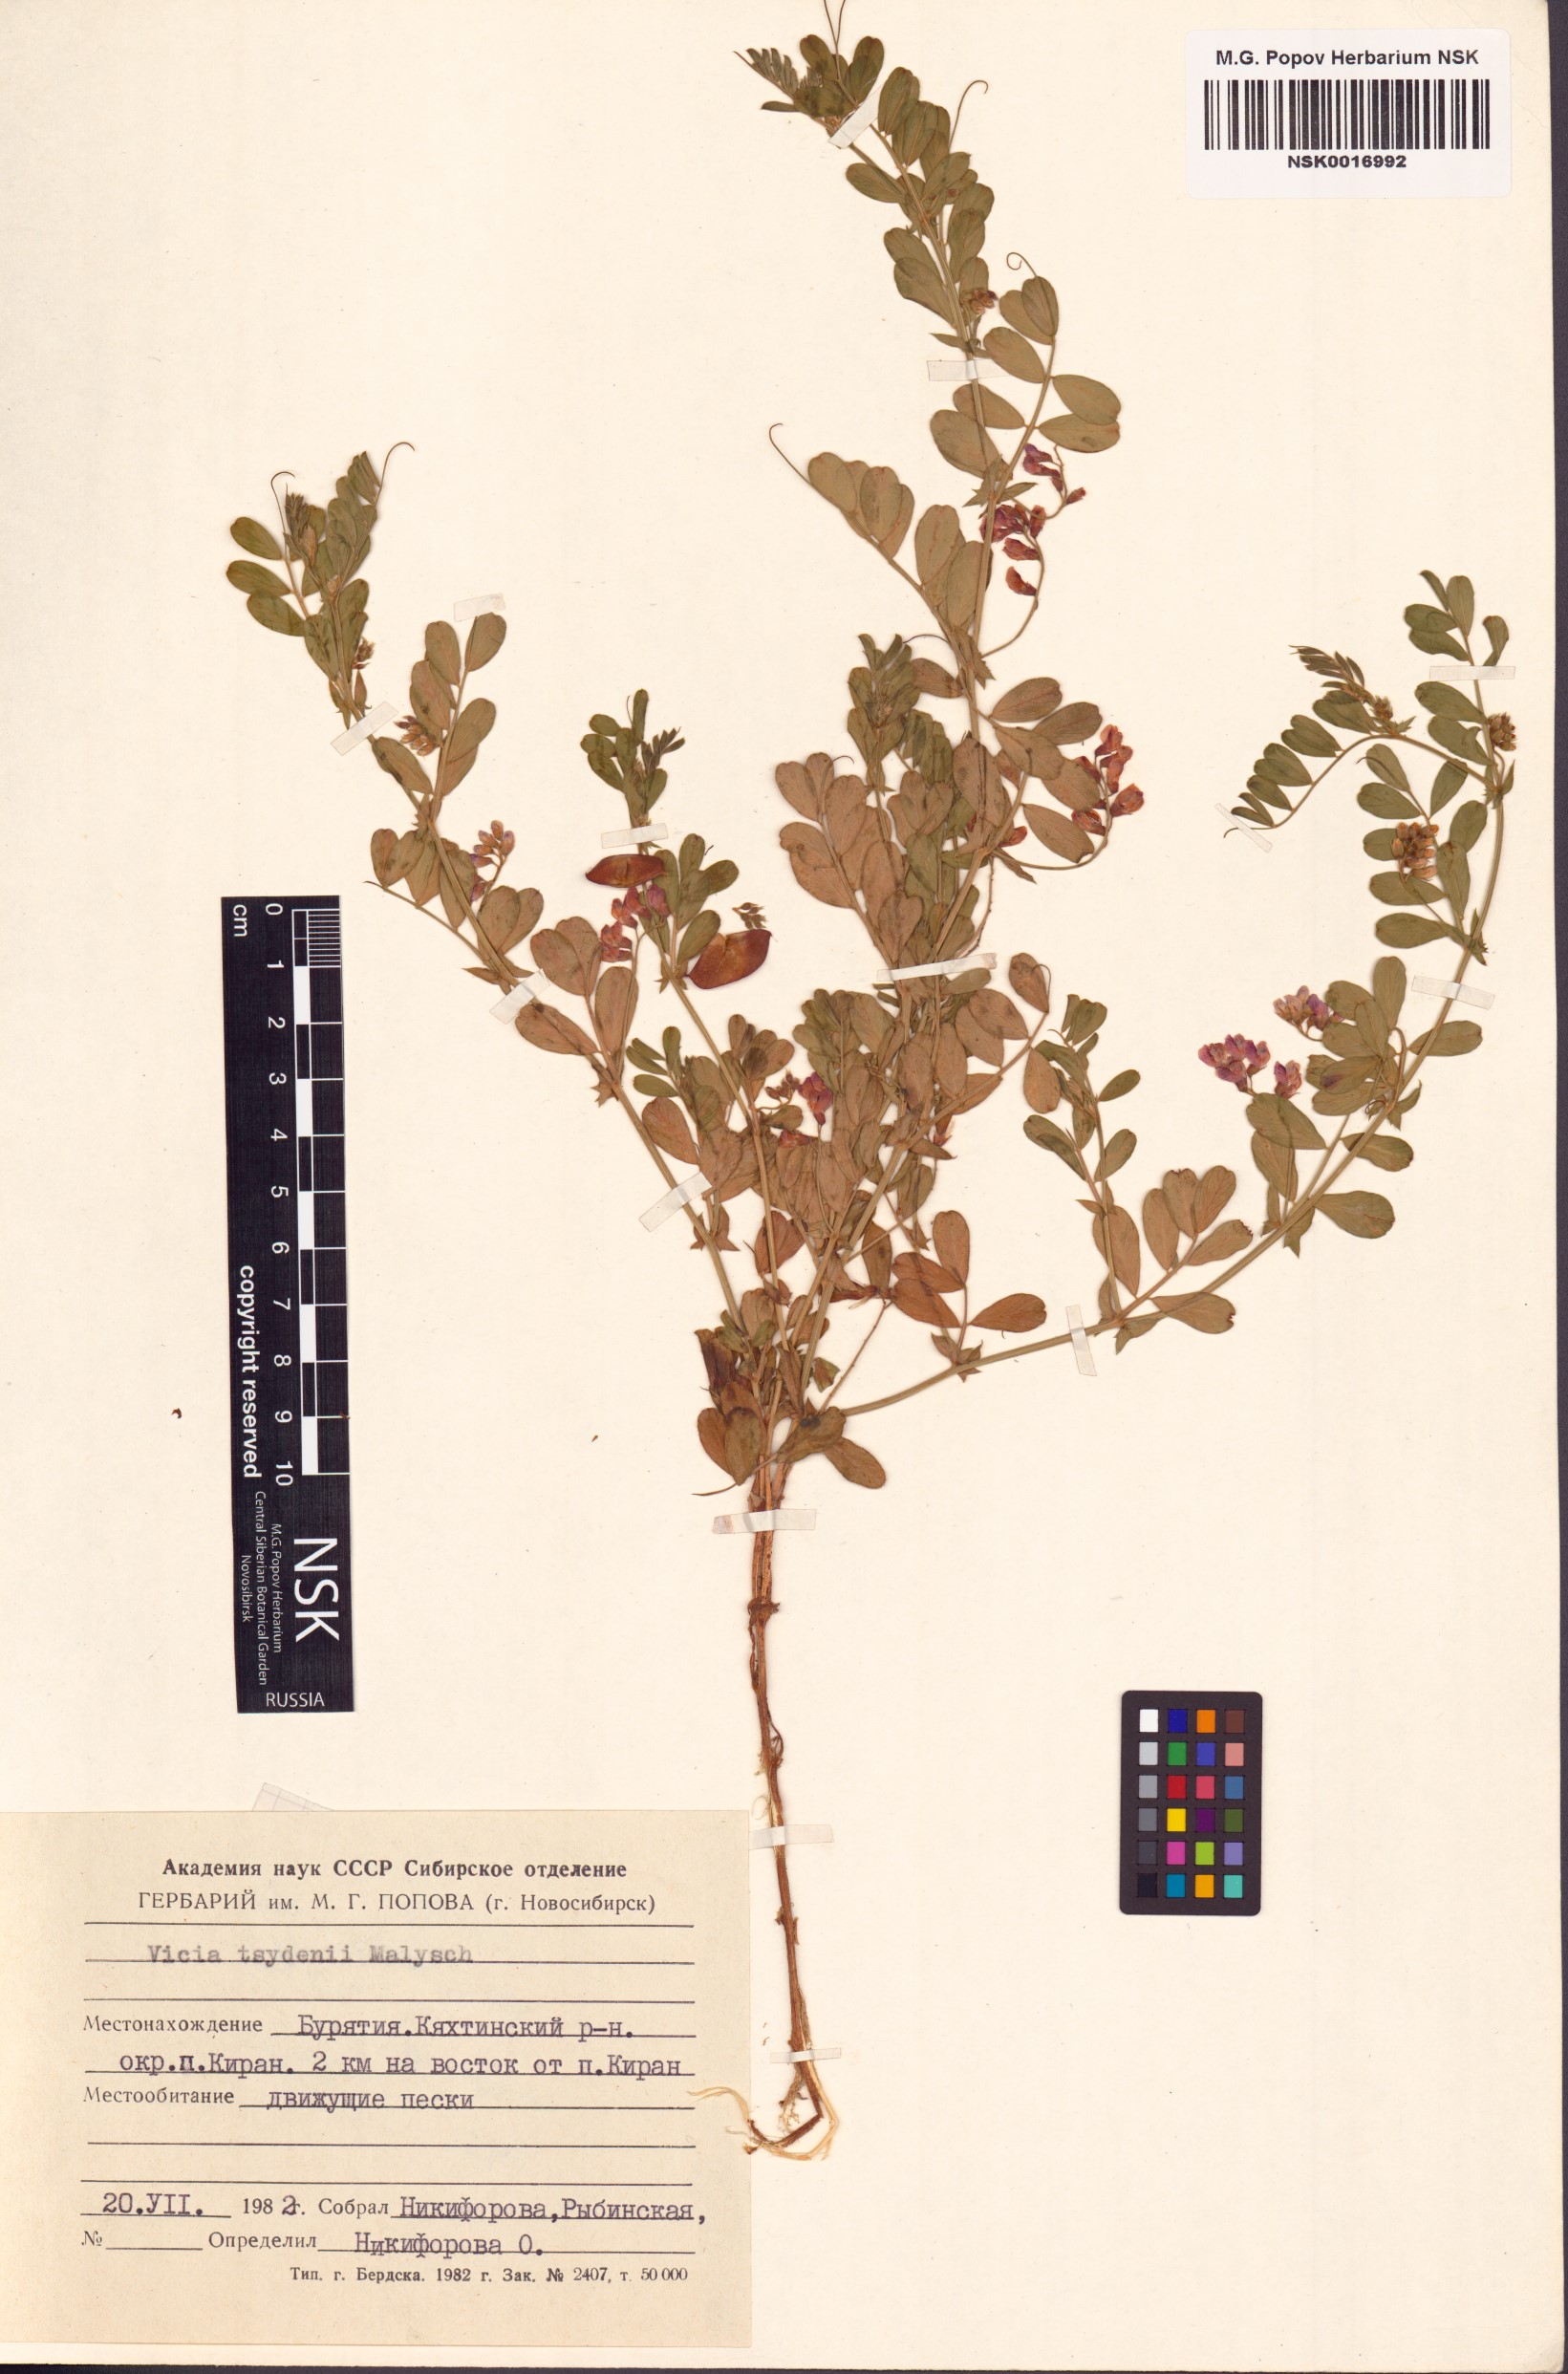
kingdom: Plantae
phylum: Tracheophyta
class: Magnoliopsida
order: Fabales
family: Fabaceae
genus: Vicia
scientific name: Vicia tsydenii
